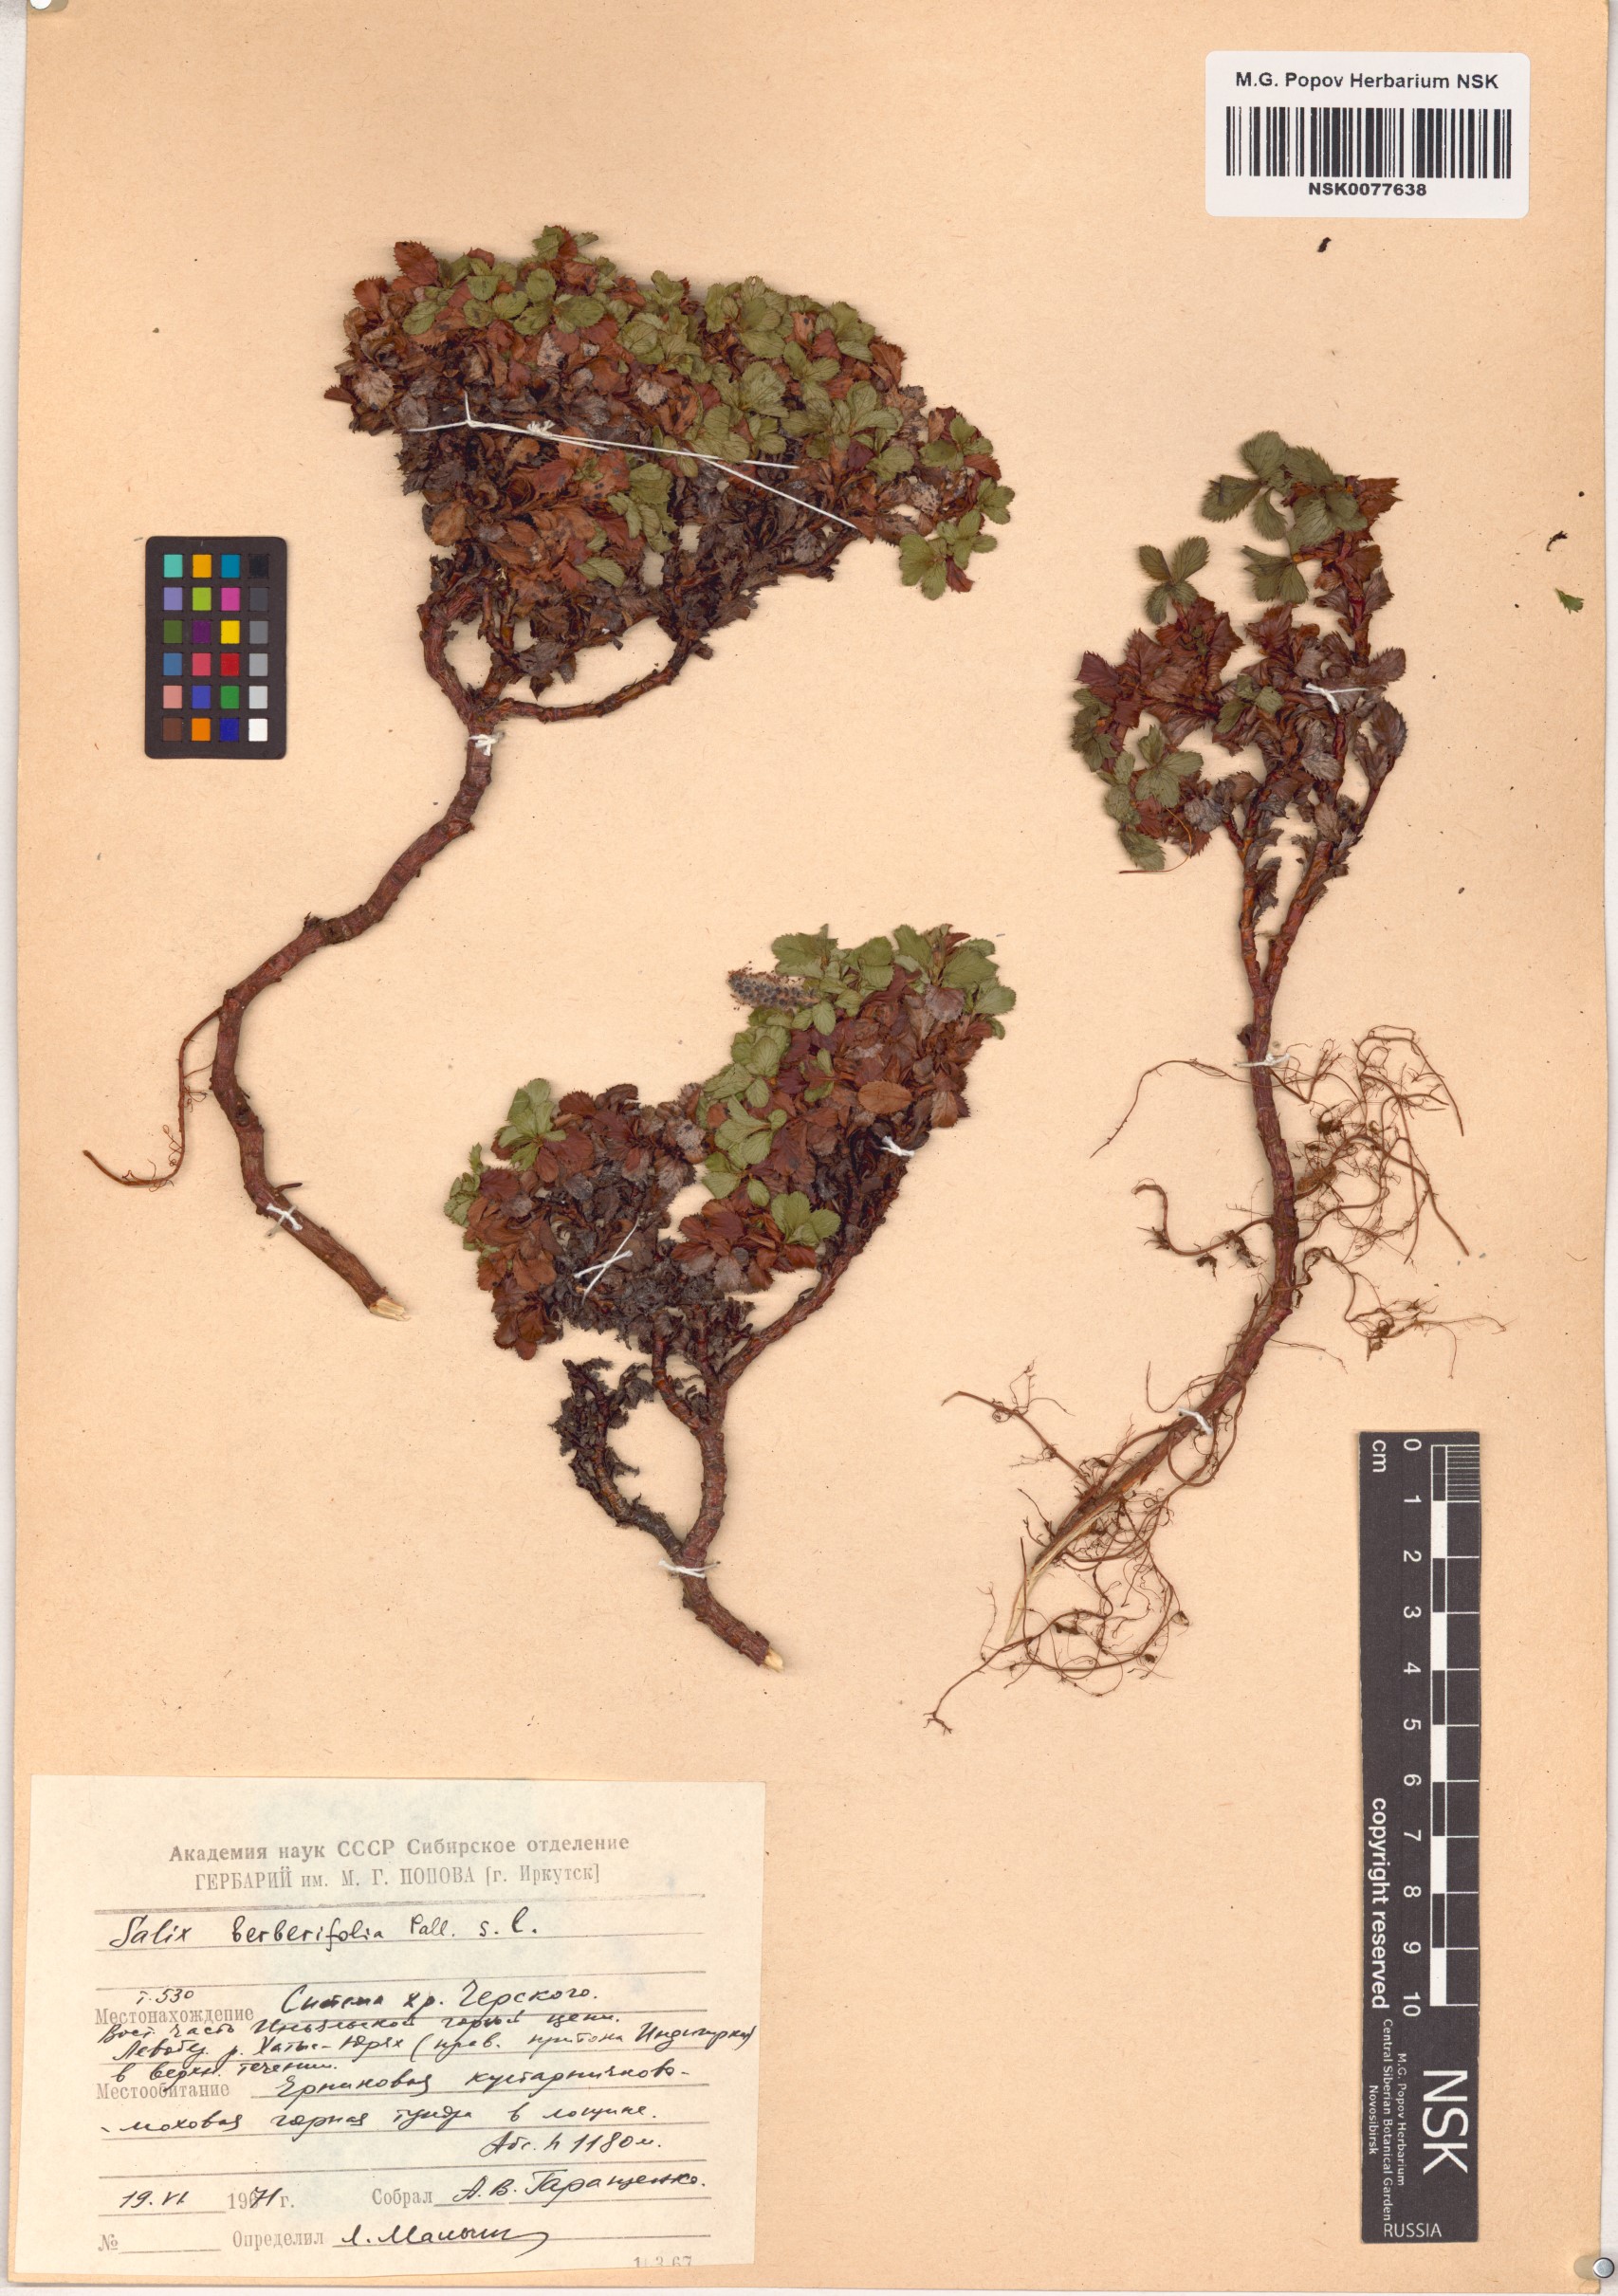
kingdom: Plantae
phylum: Tracheophyta
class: Magnoliopsida
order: Malpighiales
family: Salicaceae
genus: Salix
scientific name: Salix berberifolia
